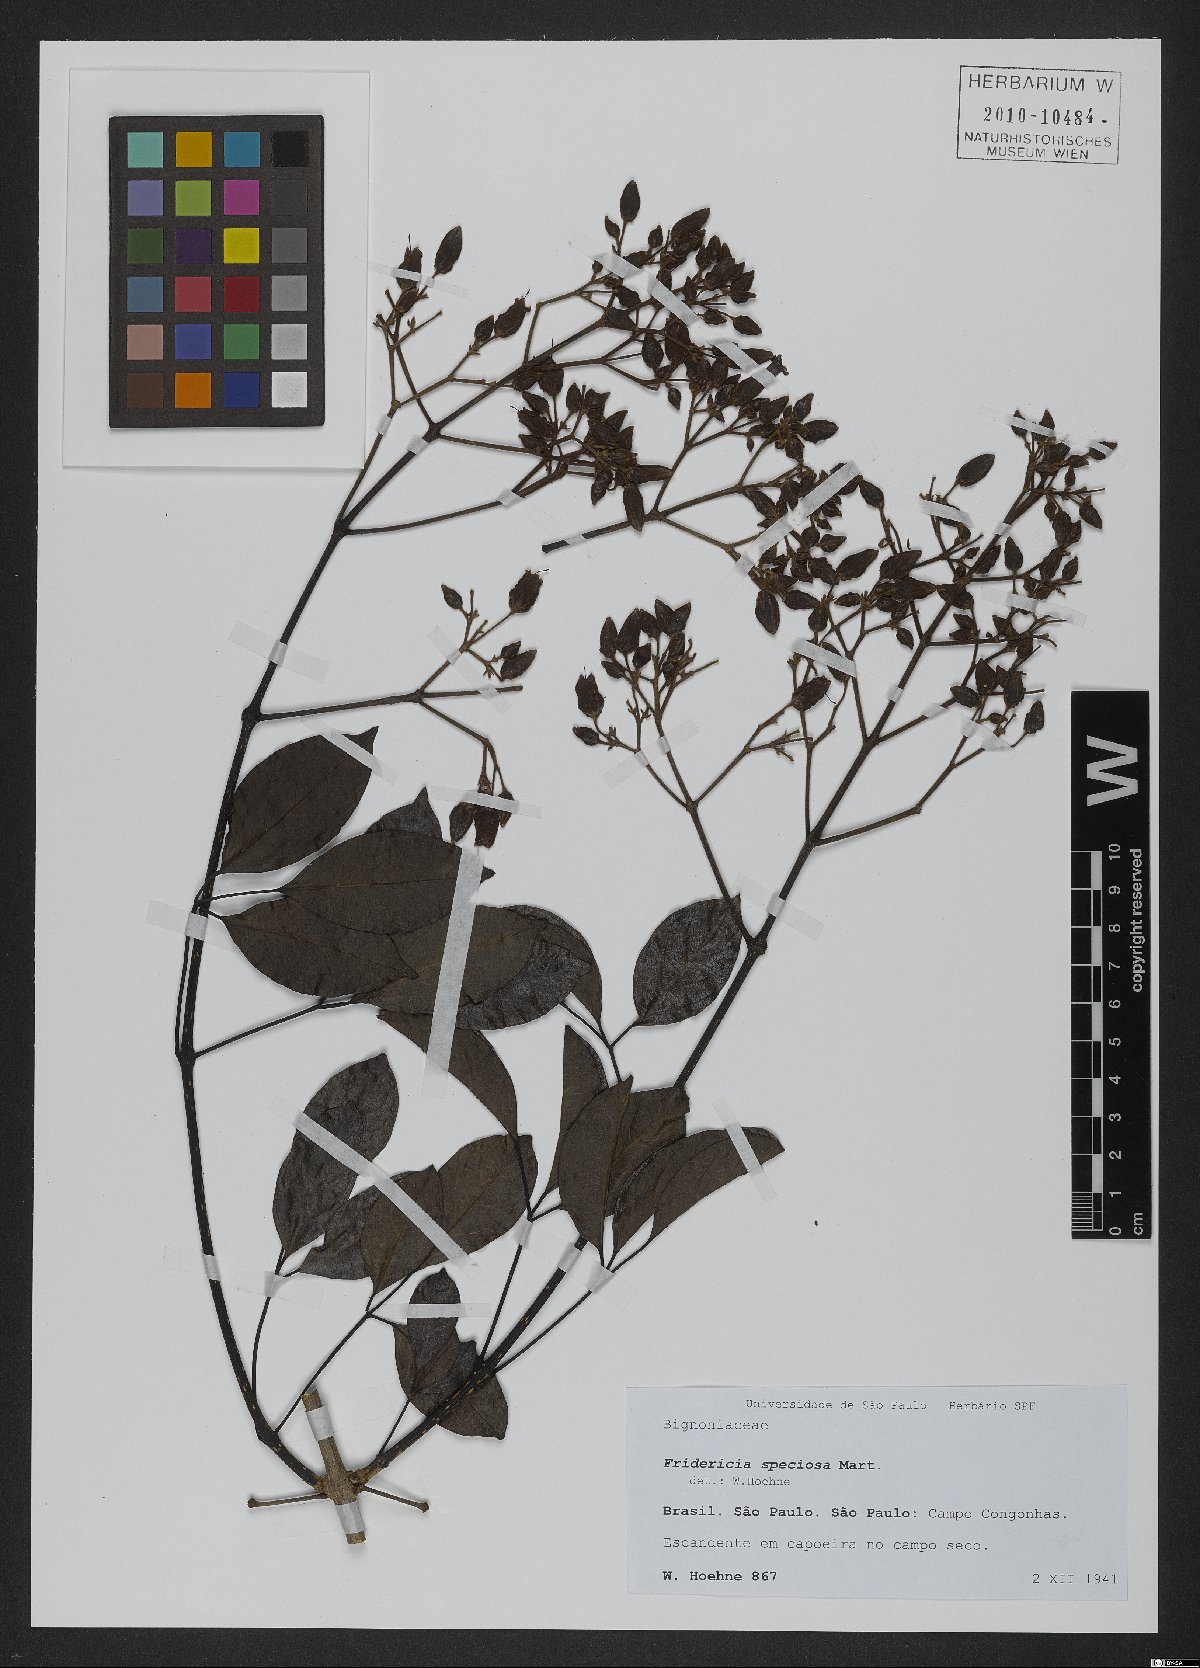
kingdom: Plantae
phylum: Tracheophyta
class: Magnoliopsida
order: Lamiales
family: Bignoniaceae
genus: Fridericia
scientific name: Fridericia speciosa
